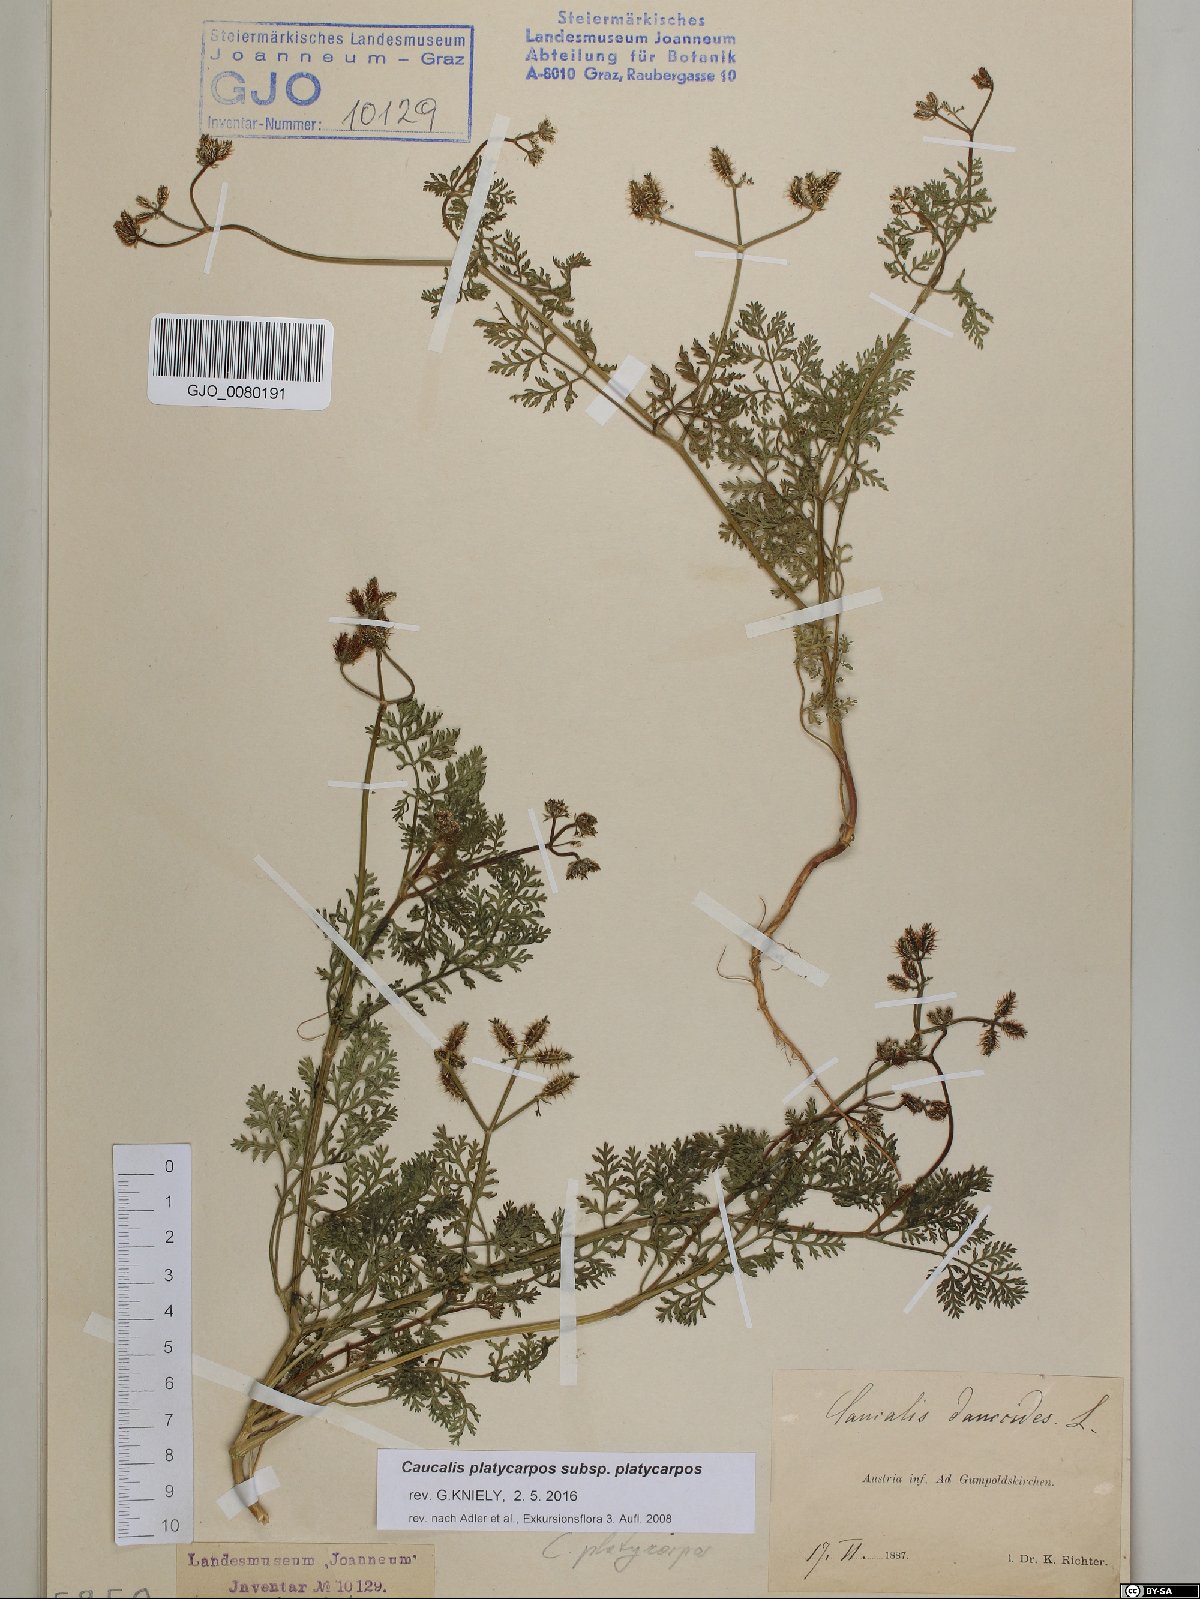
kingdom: Plantae
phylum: Tracheophyta
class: Magnoliopsida
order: Apiales
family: Apiaceae
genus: Caucalis
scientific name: Caucalis platycarpos
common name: Small bur-parsley
